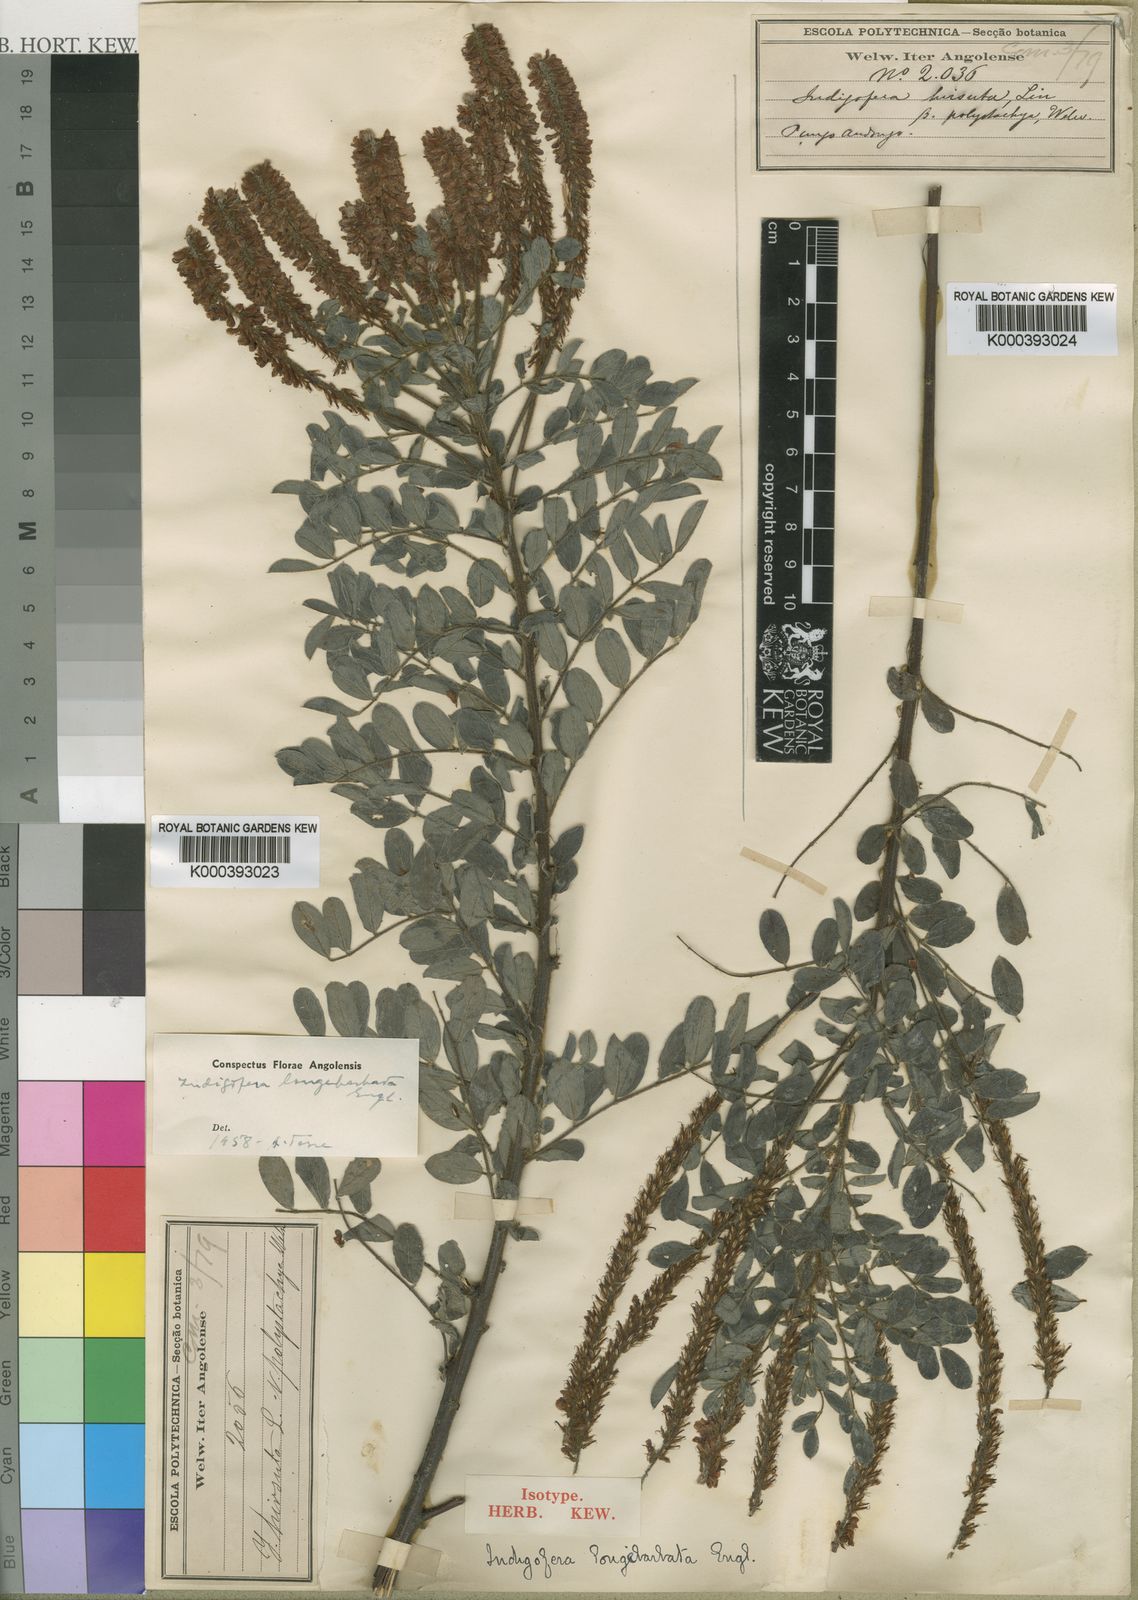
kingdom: Plantae
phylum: Tracheophyta
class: Magnoliopsida
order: Fabales
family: Fabaceae
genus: Indigofera
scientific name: Indigofera fuscobarbata
